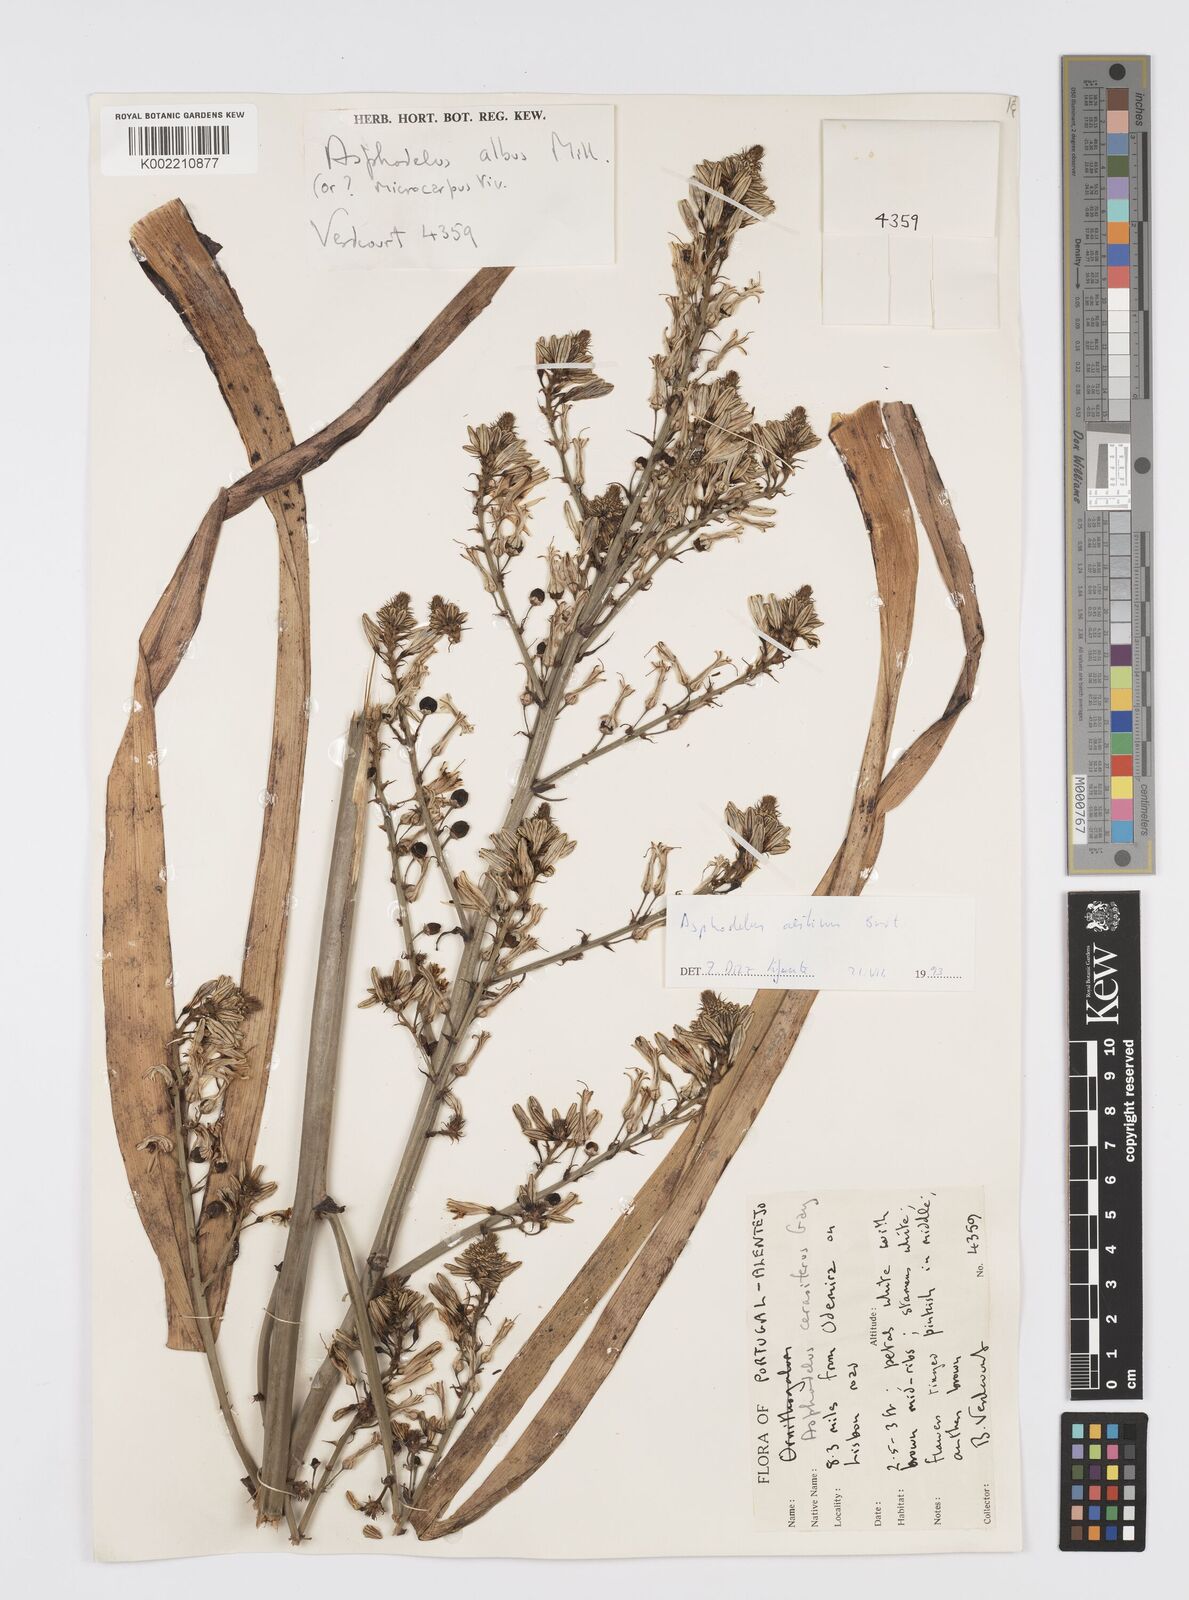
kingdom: Plantae
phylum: Tracheophyta
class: Liliopsida
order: Asparagales
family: Asphodelaceae
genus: Asphodelus
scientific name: Asphodelus albus
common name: White asphodel
